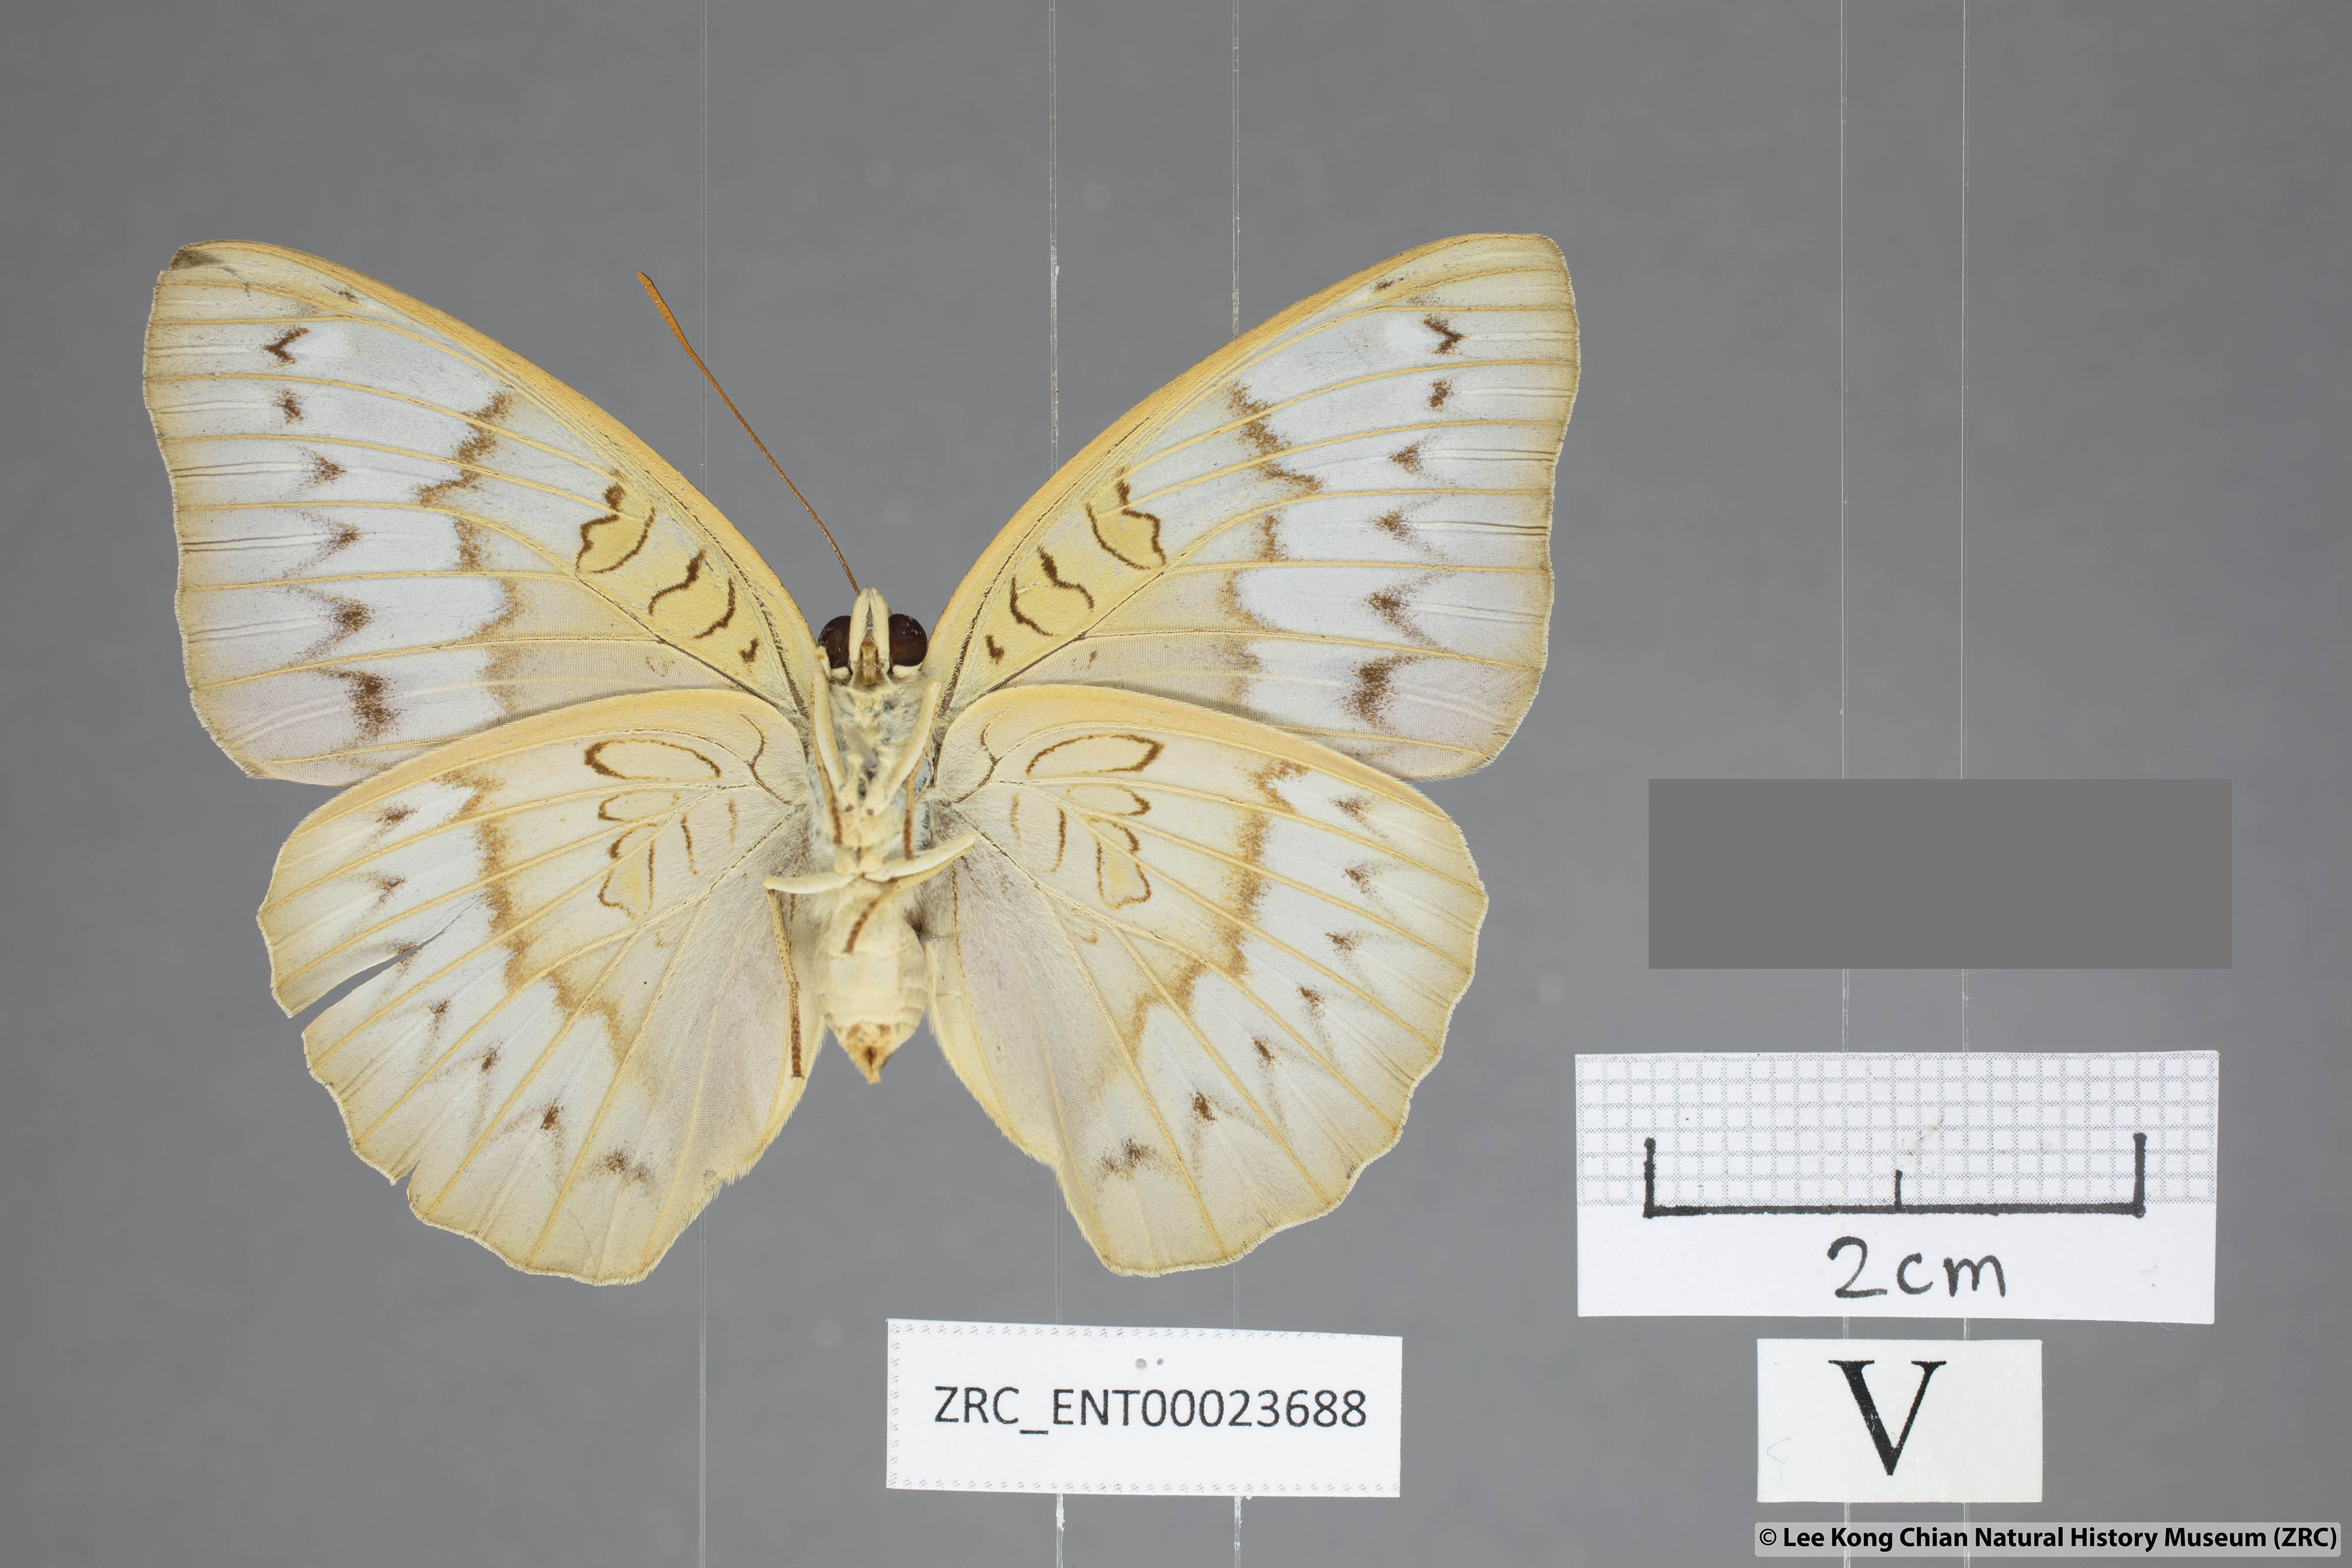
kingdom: Animalia
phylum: Arthropoda
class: Insecta
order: Lepidoptera
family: Nymphalidae
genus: Euthalia
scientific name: Euthalia kanda
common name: Yellow baron
